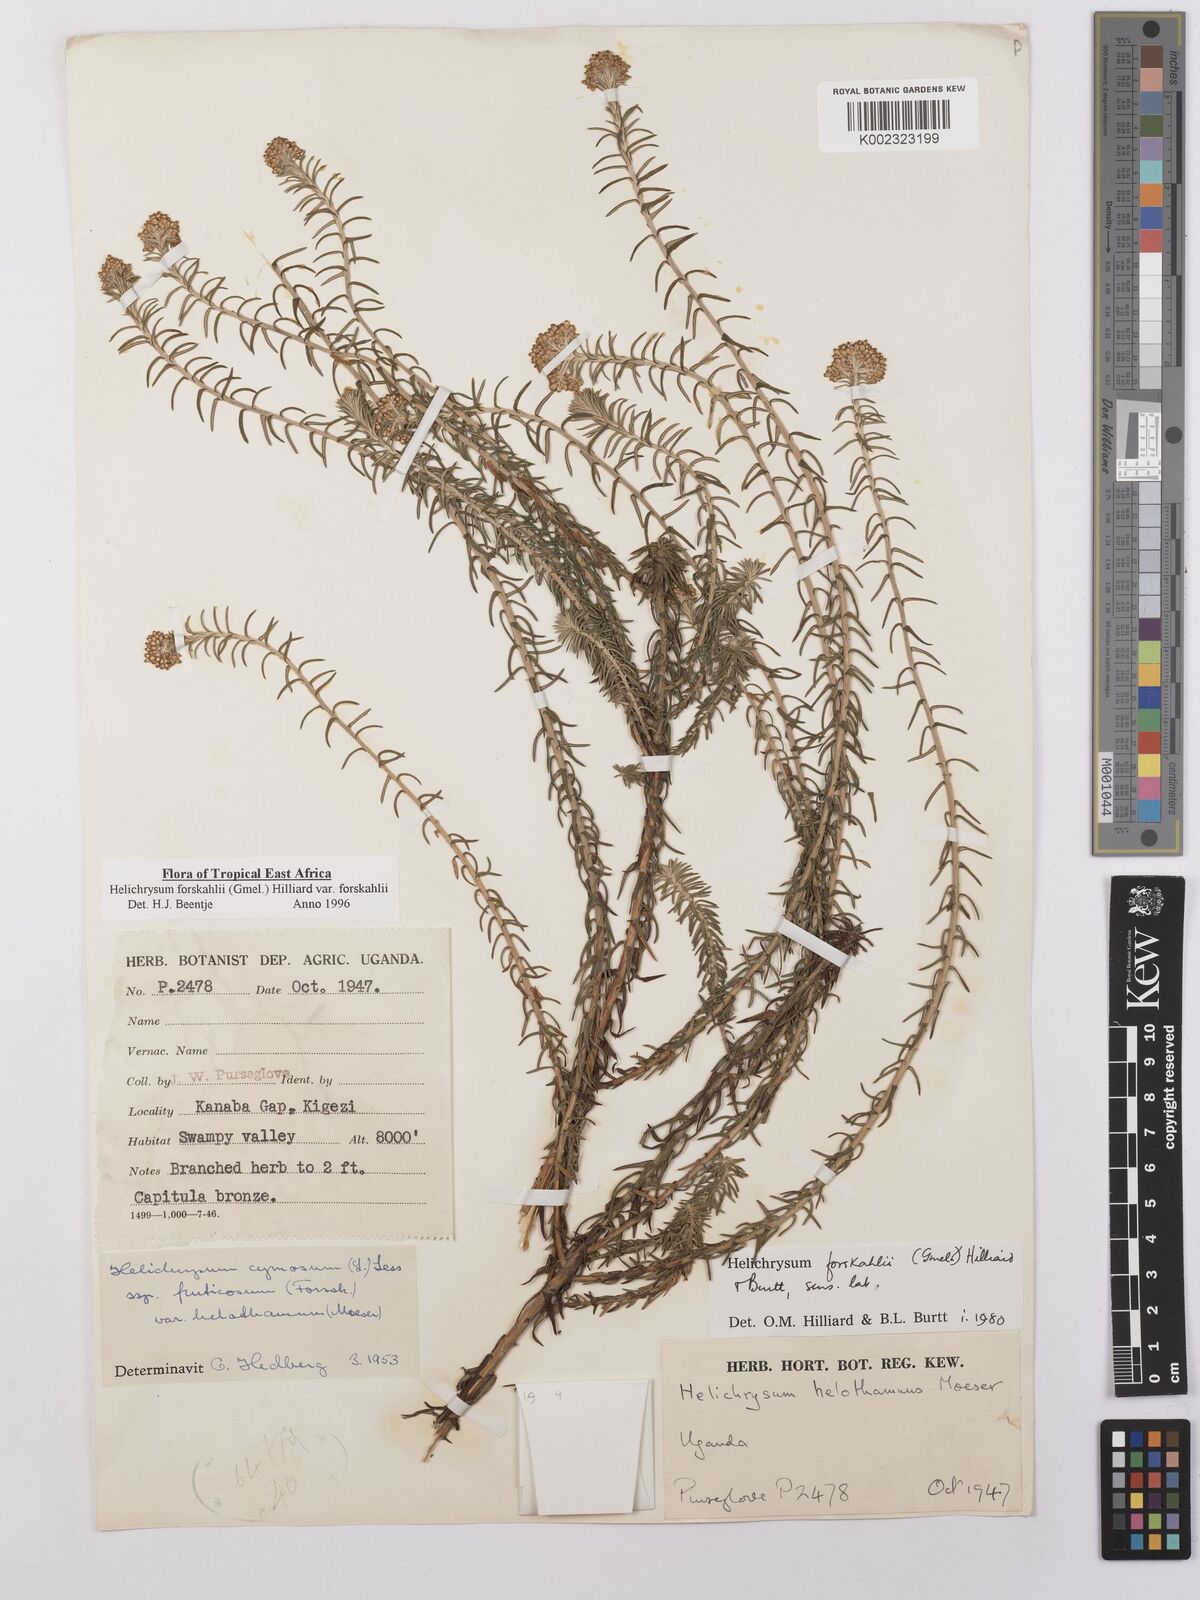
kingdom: Plantae
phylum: Tracheophyta
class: Magnoliopsida
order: Asterales
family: Asteraceae
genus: Helichrysum
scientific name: Helichrysum forskahlii
